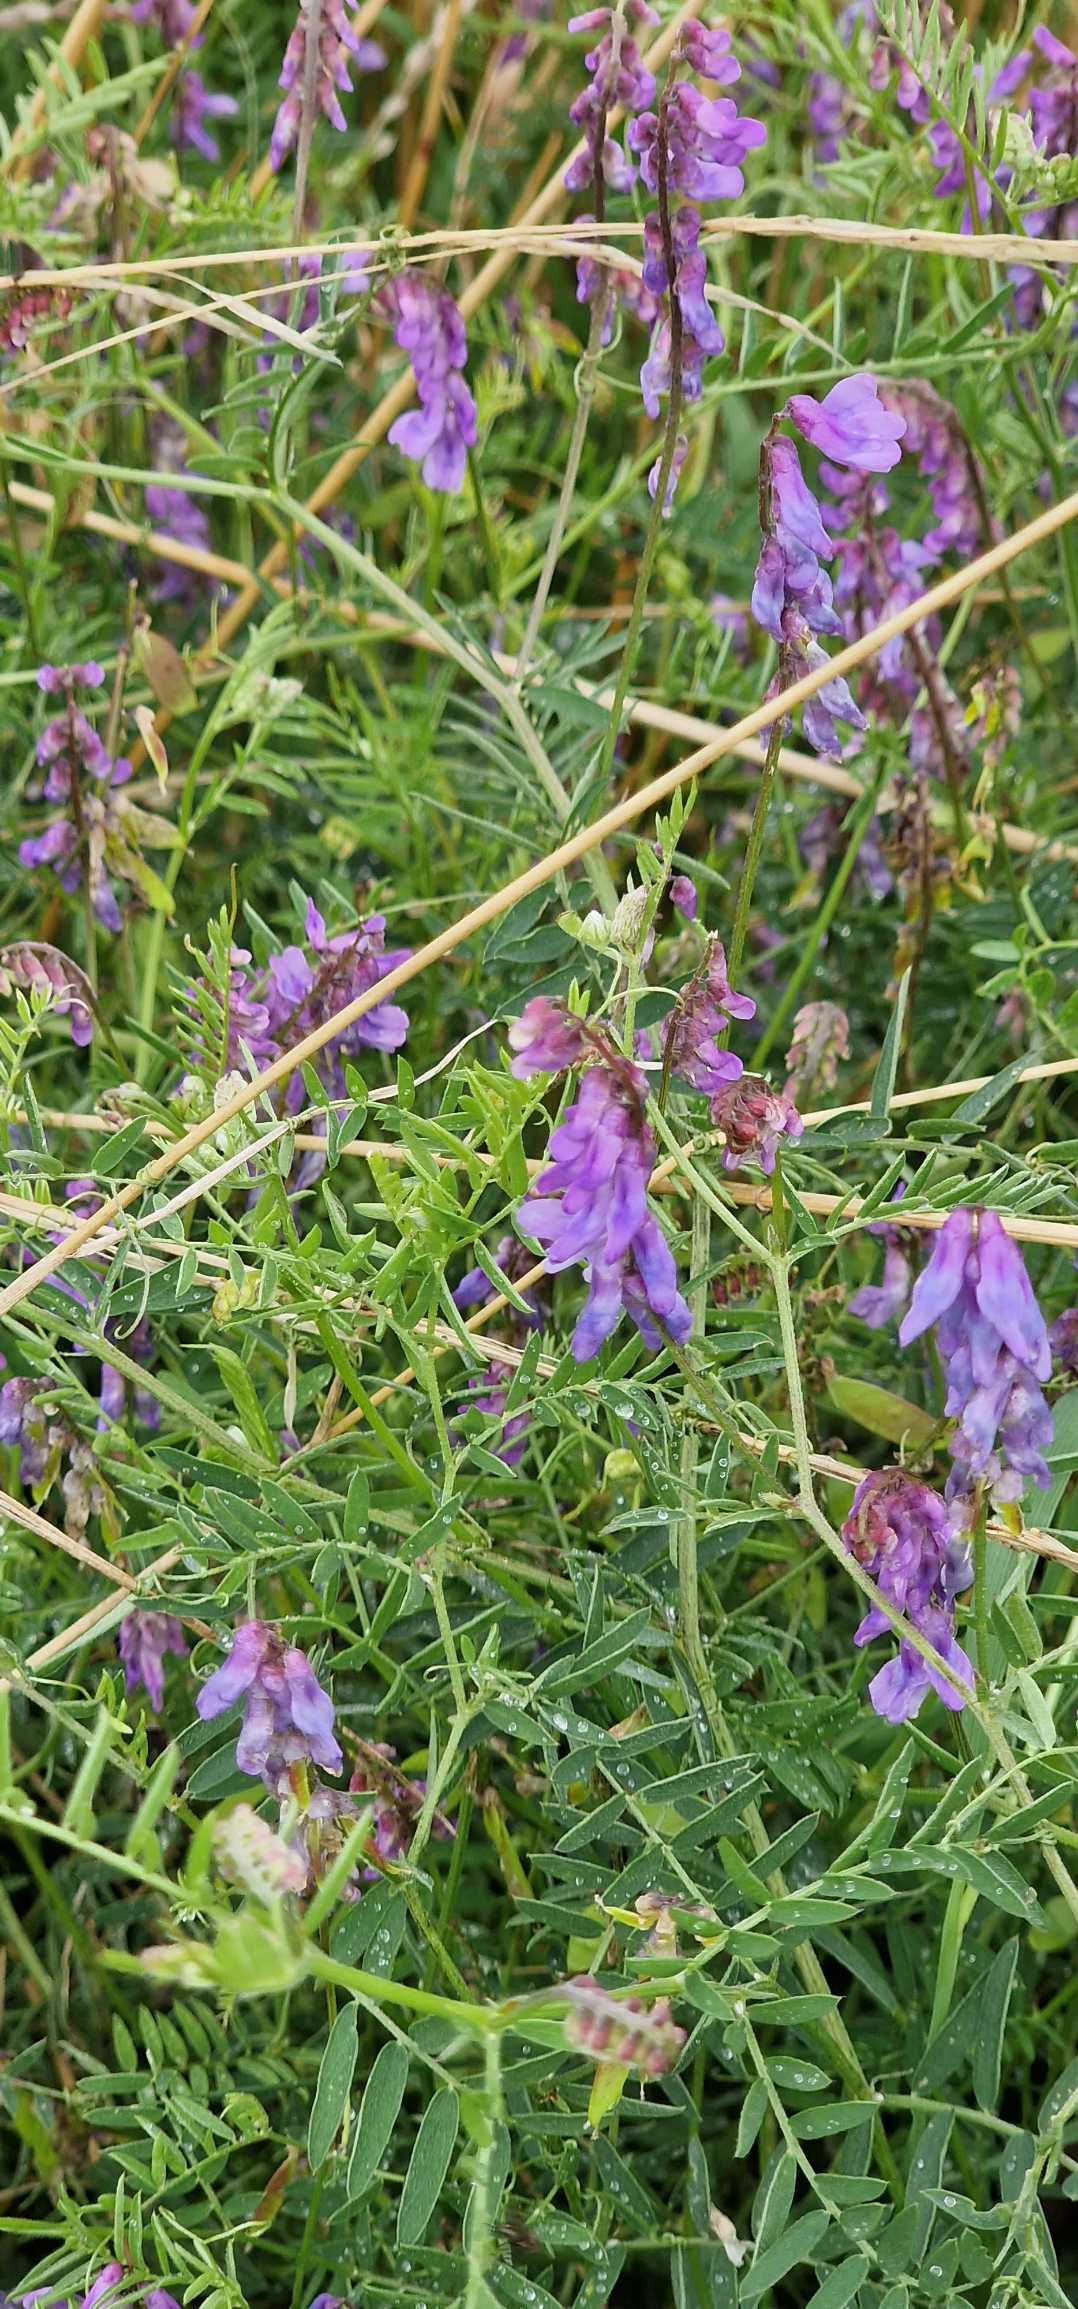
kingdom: Plantae
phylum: Tracheophyta
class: Magnoliopsida
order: Fabales
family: Fabaceae
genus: Vicia
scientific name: Vicia cracca
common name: Muse-vikke
